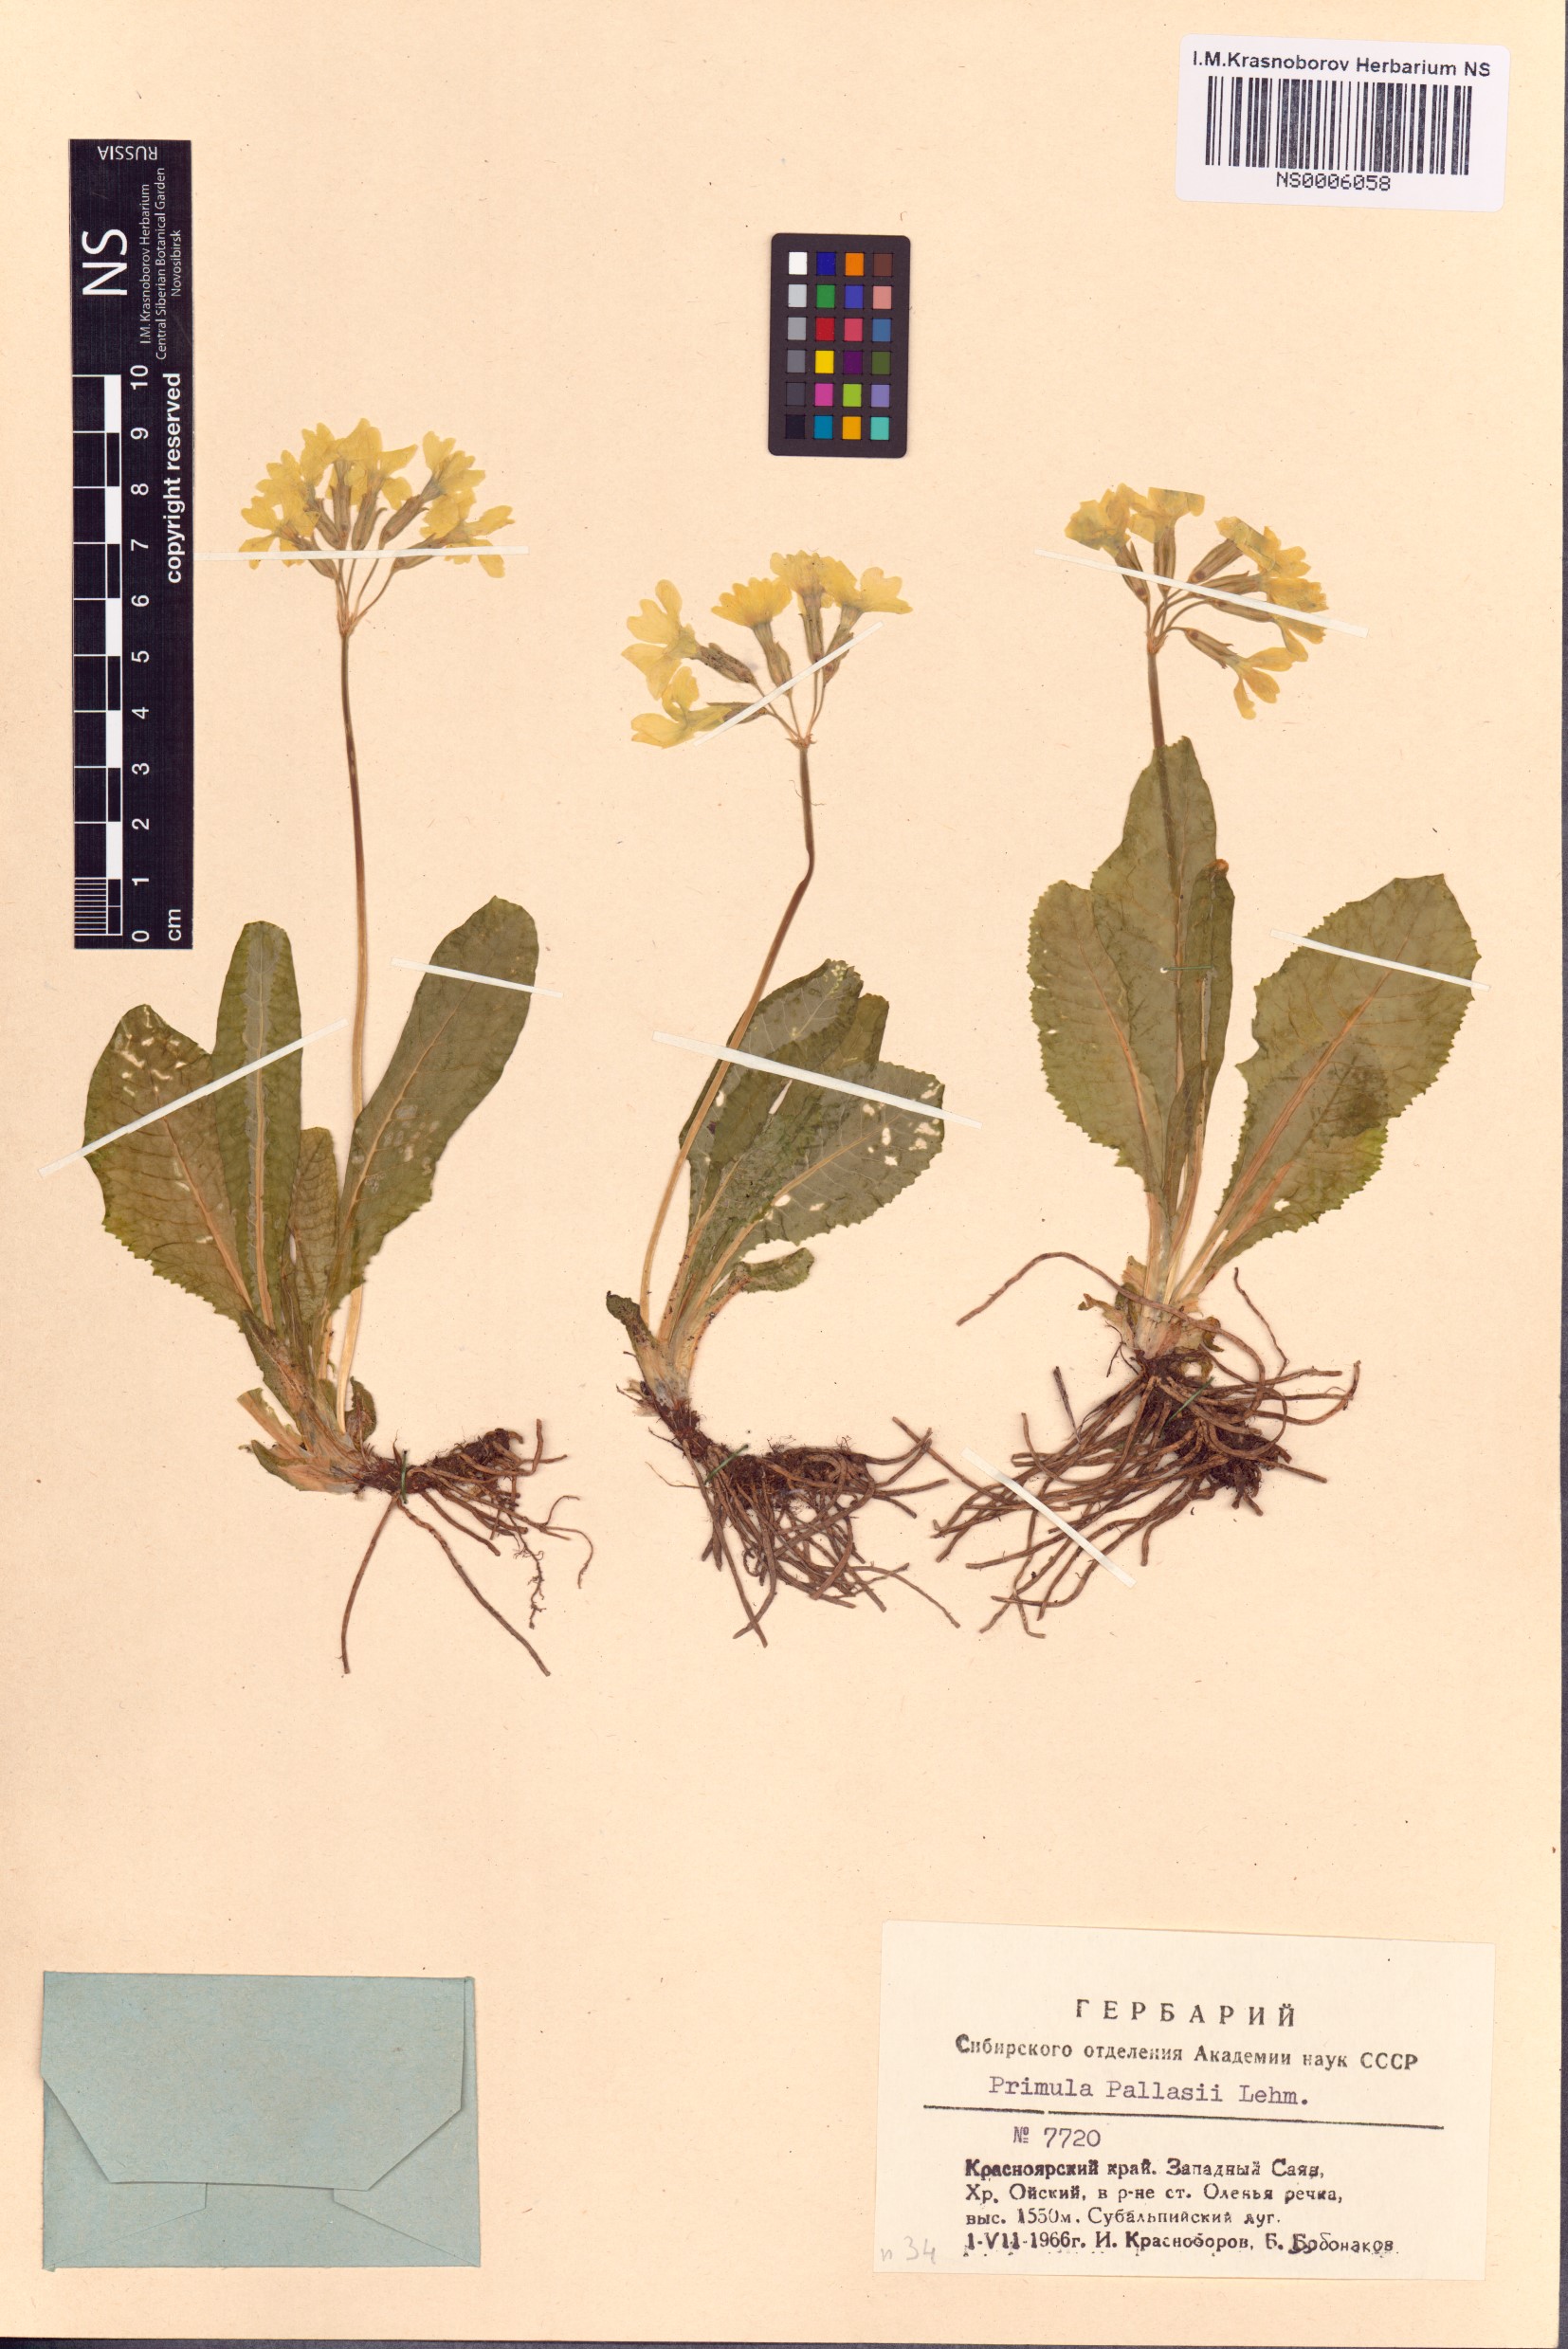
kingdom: Plantae
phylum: Tracheophyta
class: Magnoliopsida
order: Ericales
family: Primulaceae
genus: Primula
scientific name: Primula elatior
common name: Oxlip
